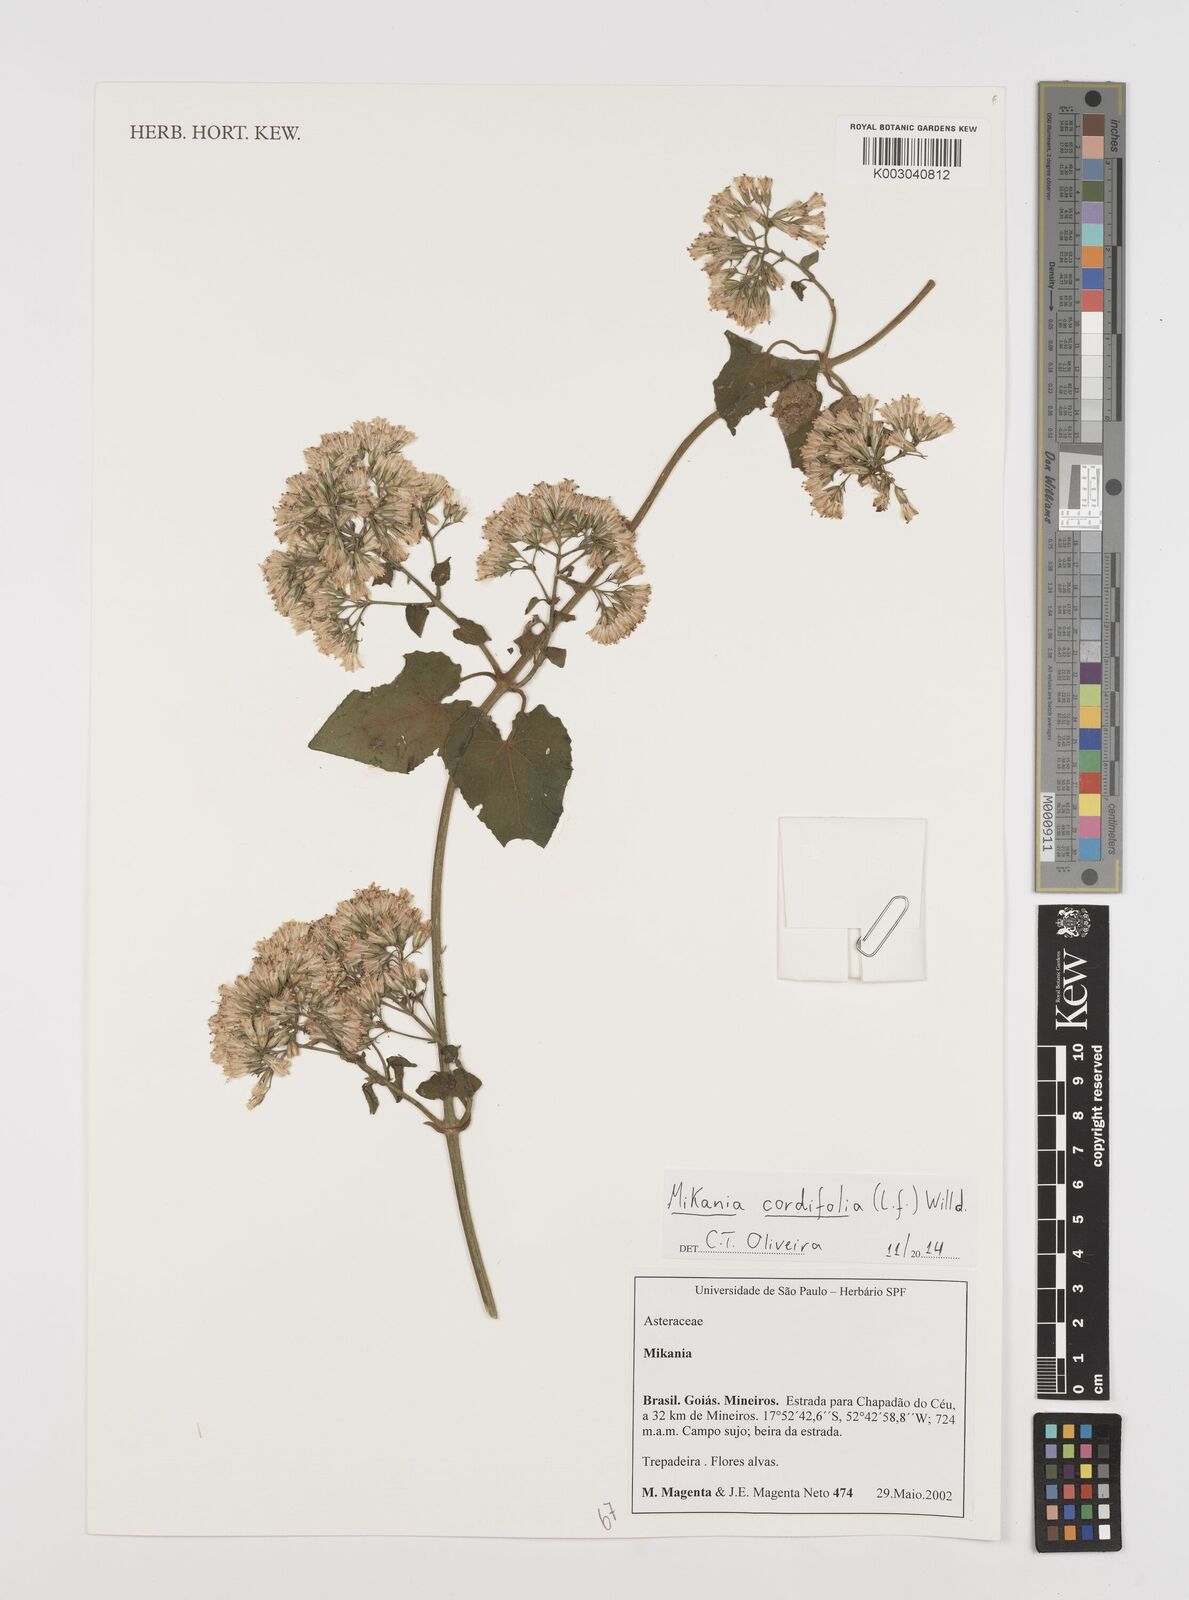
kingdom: Plantae
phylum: Tracheophyta
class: Magnoliopsida
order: Asterales
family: Asteraceae
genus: Mikania
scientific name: Mikania cordifolia
